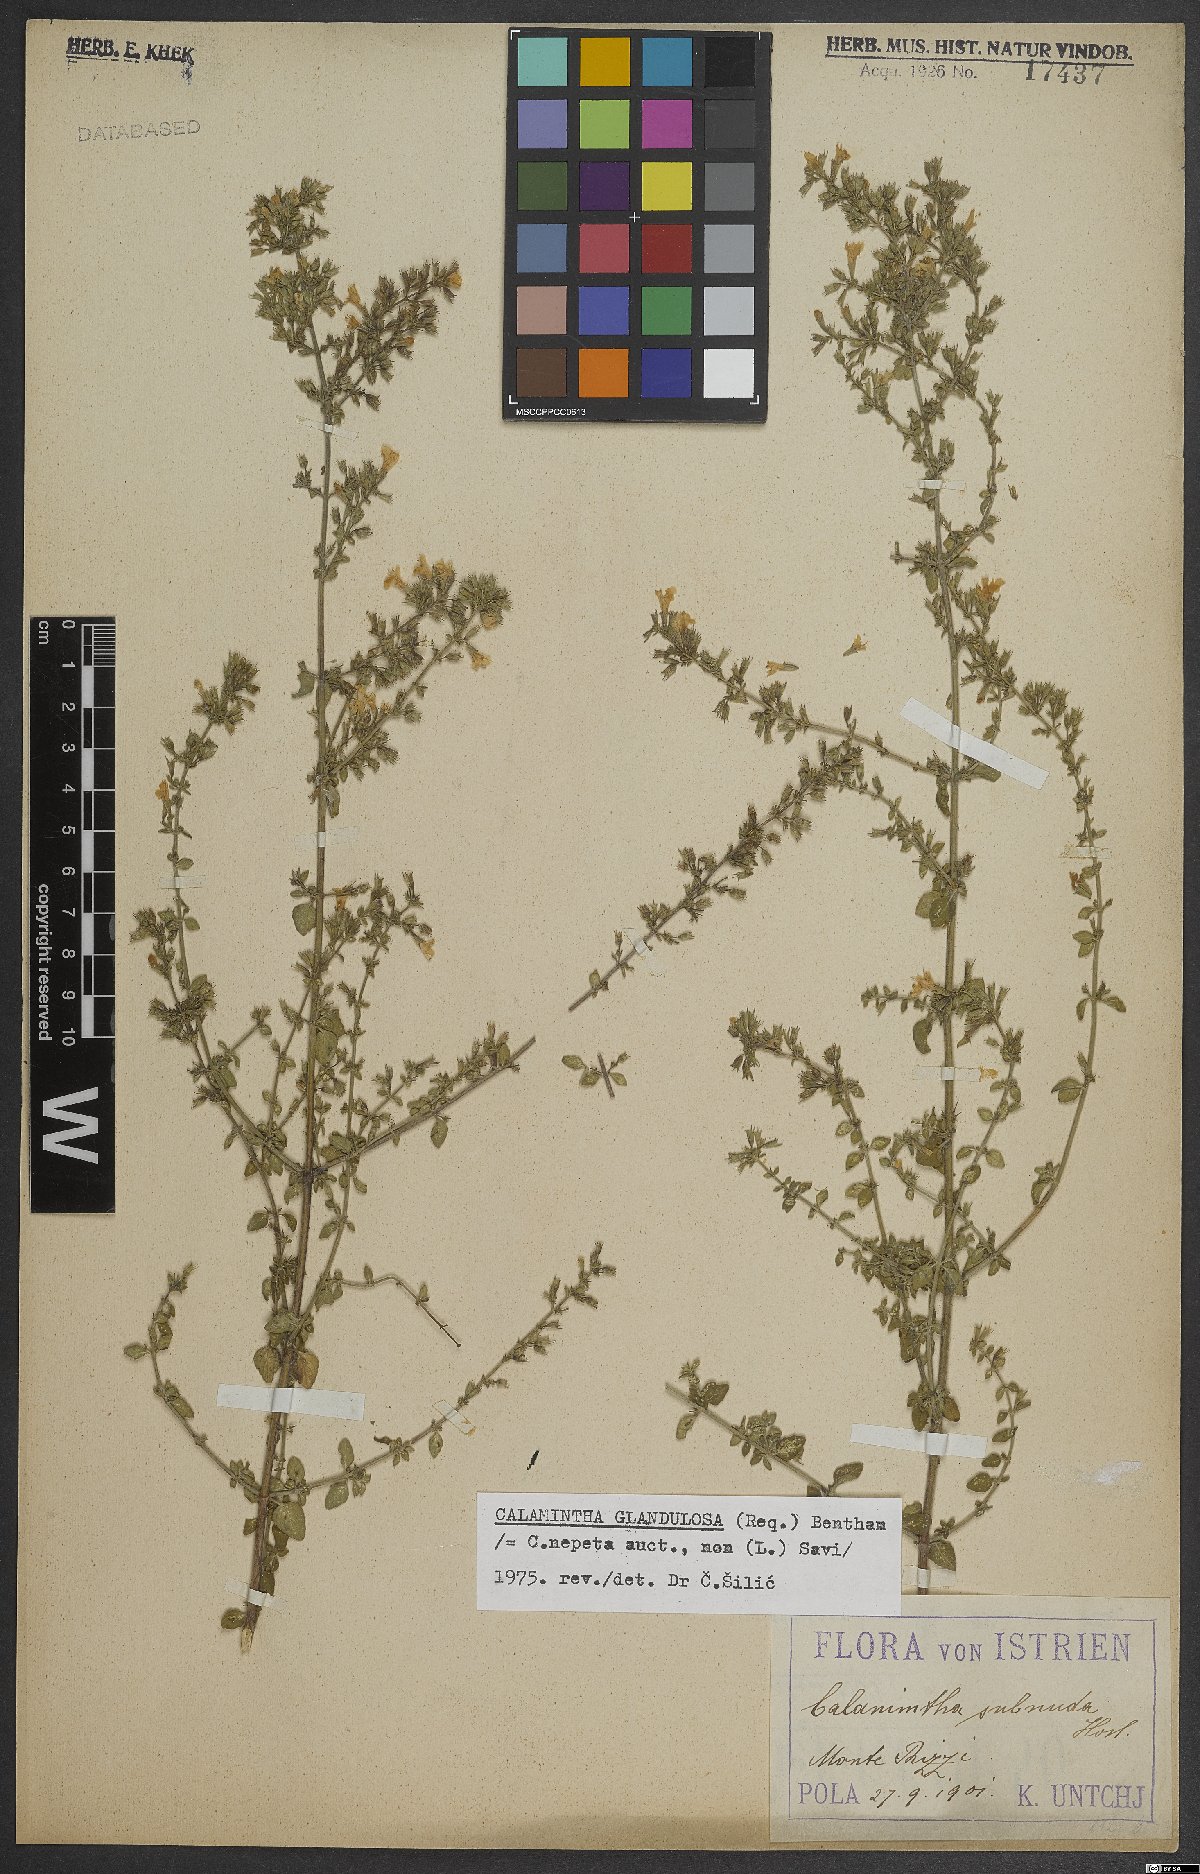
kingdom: Plantae
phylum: Tracheophyta
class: Magnoliopsida
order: Lamiales
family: Lamiaceae
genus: Clinopodium
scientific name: Clinopodium nepeta
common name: Lesser calamint
